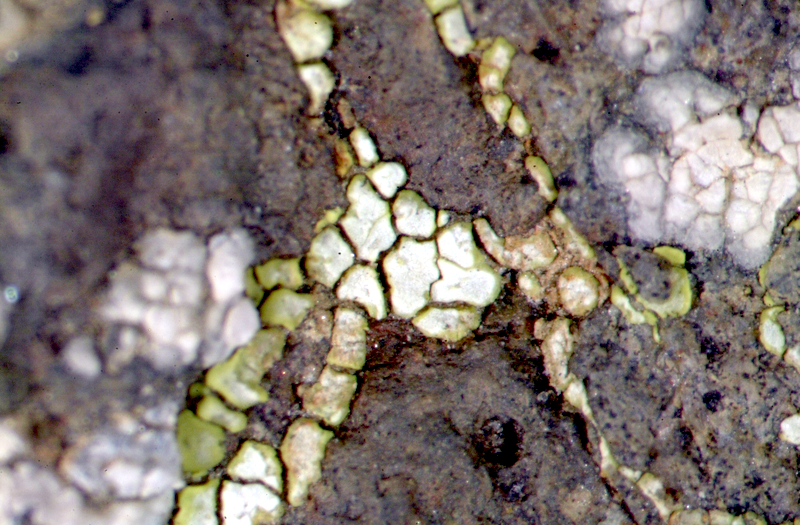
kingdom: Fungi
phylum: Ascomycota
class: Lecanoromycetes
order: Caliciales
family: Caliciaceae
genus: Buellia
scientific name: Buellia
